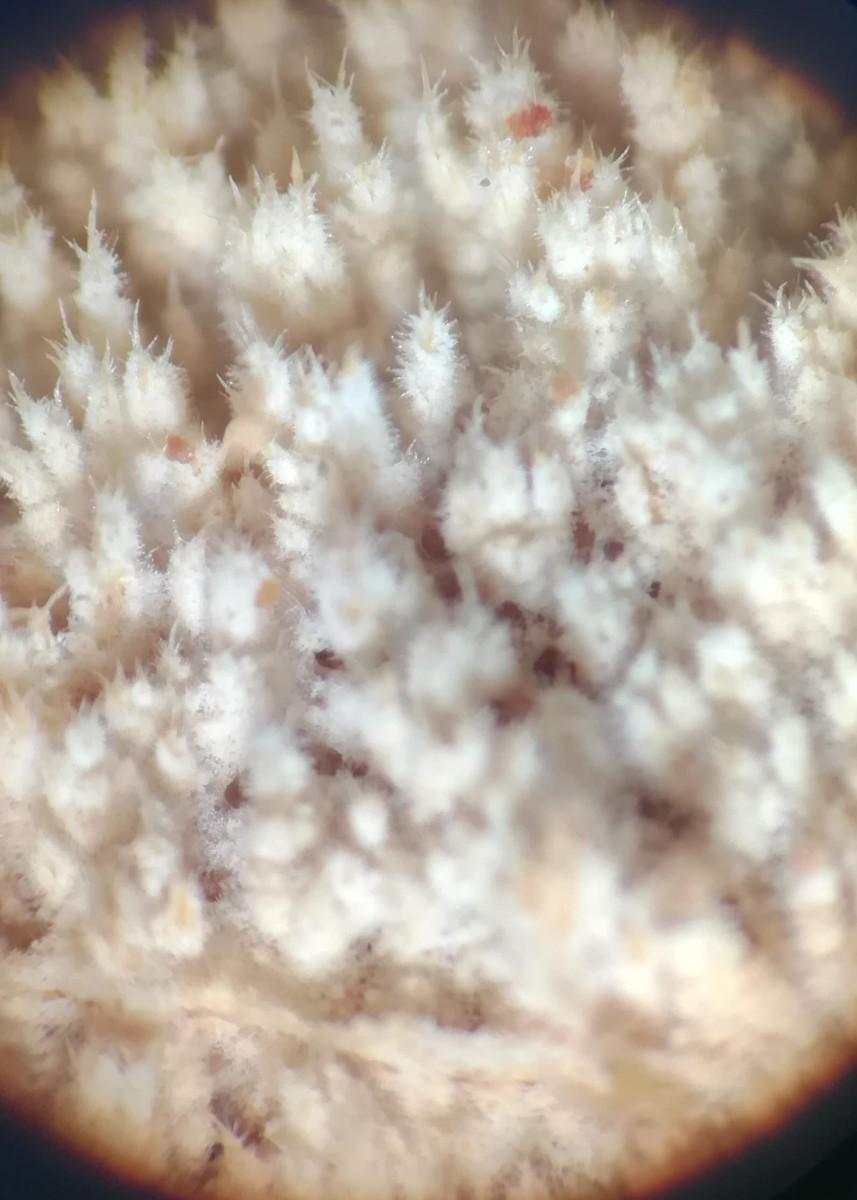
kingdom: Fungi
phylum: Basidiomycota
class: Agaricomycetes
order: Hymenochaetales
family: Hyphodontiaceae
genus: Hyphodontia
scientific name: Hyphodontia barba-jovis
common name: skægget tandsvamp
